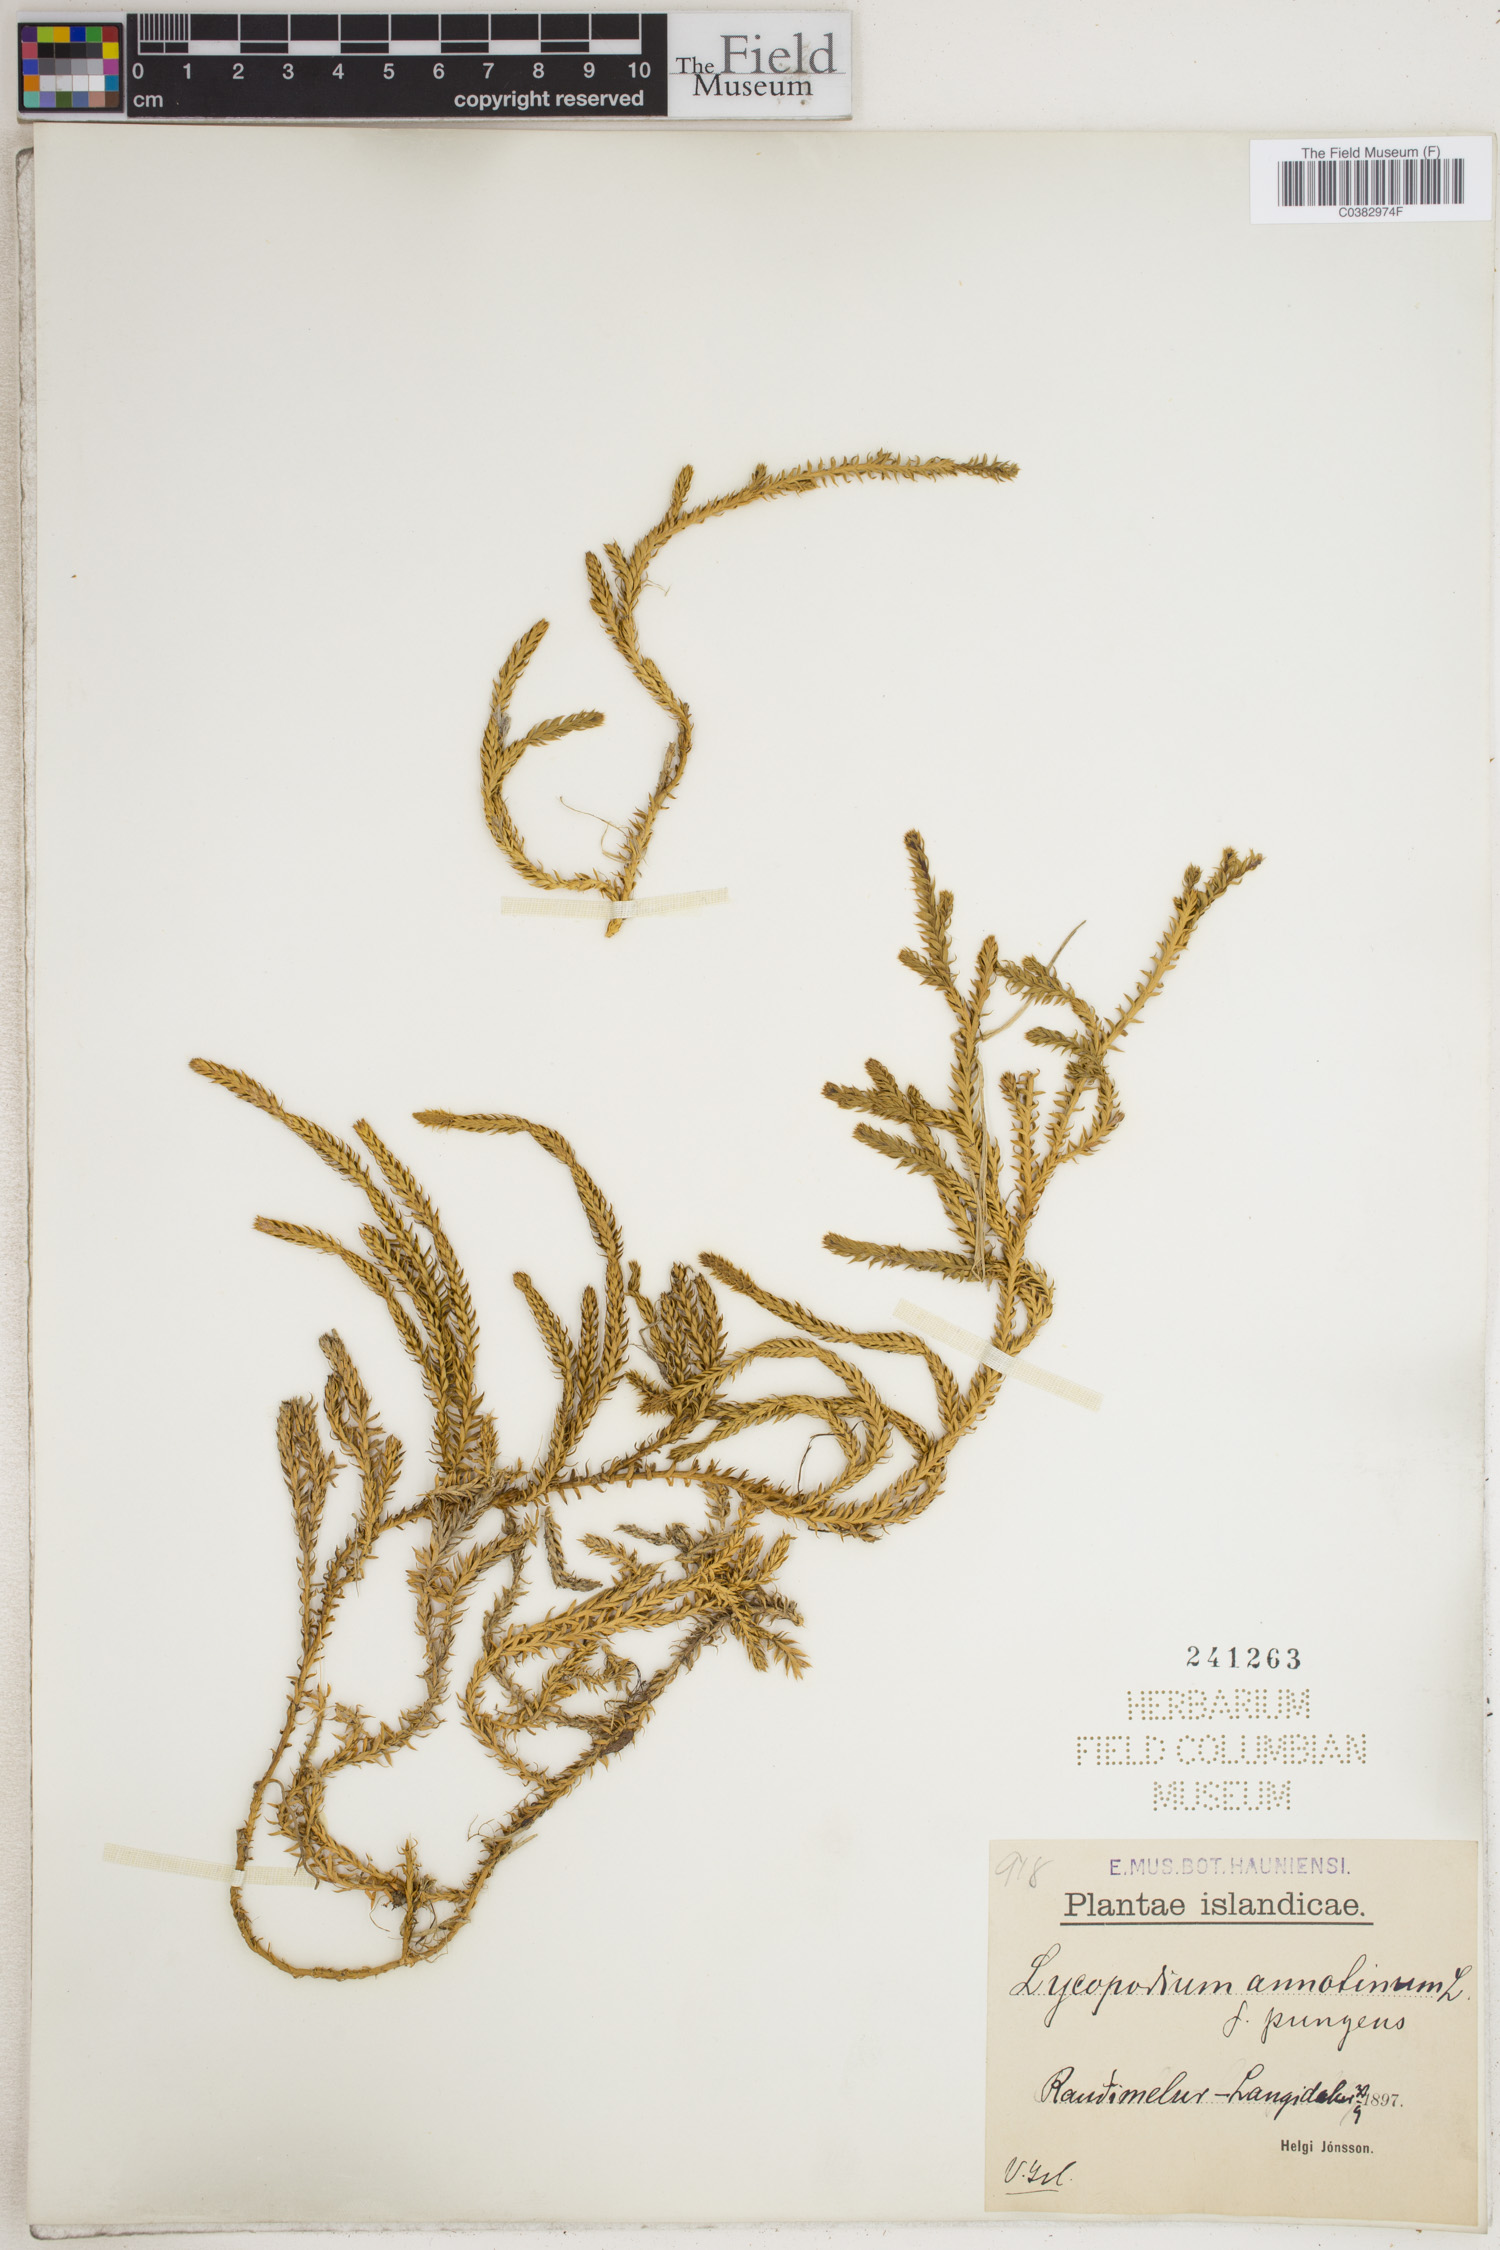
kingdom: Plantae
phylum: Tracheophyta
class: Lycopodiopsida
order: Lycopodiales
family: Lycopodiaceae
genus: Spinulum
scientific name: Spinulum annotinum
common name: Interrupted club-moss
